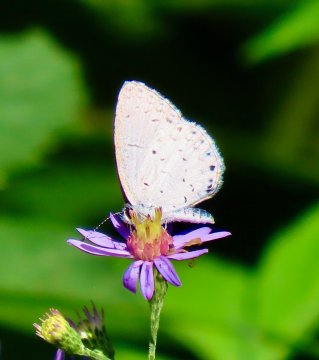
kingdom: Animalia
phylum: Arthropoda
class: Insecta
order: Lepidoptera
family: Lycaenidae
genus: Cyaniris
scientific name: Cyaniris neglecta
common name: Summer Azure
